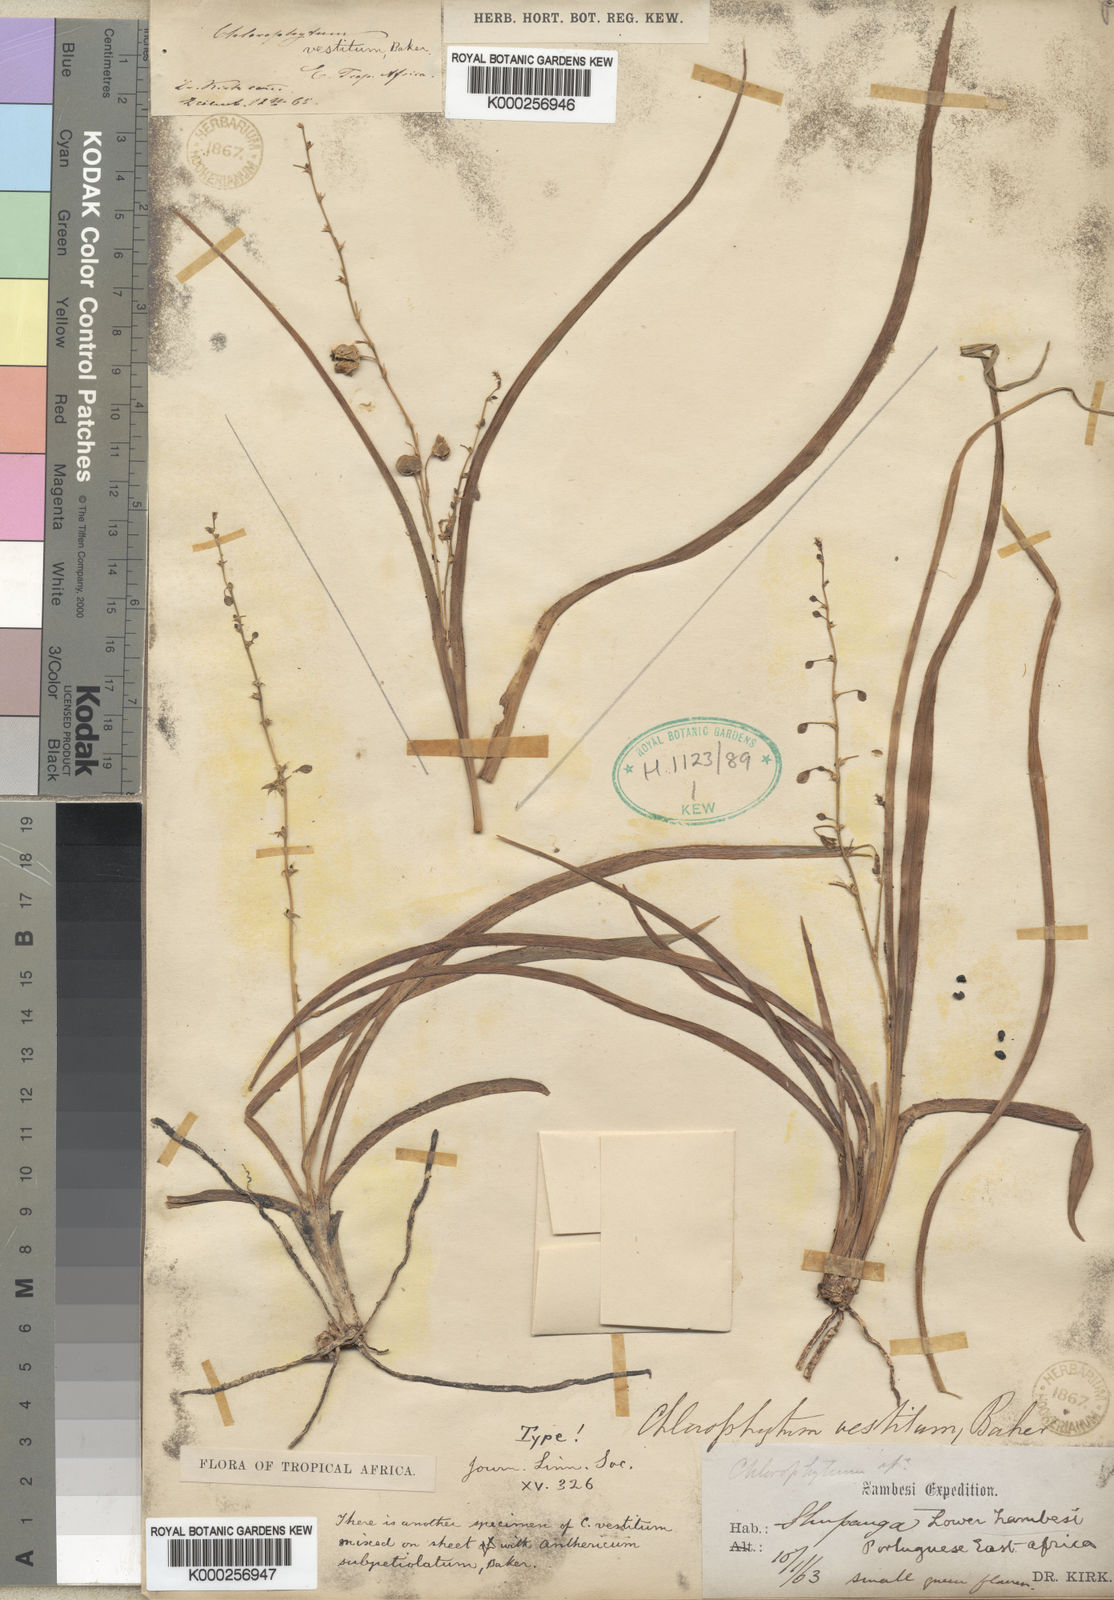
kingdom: Plantae
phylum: Tracheophyta
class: Liliopsida
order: Asparagales
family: Asparagaceae
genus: Chlorophytum
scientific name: Chlorophytum vestitum
